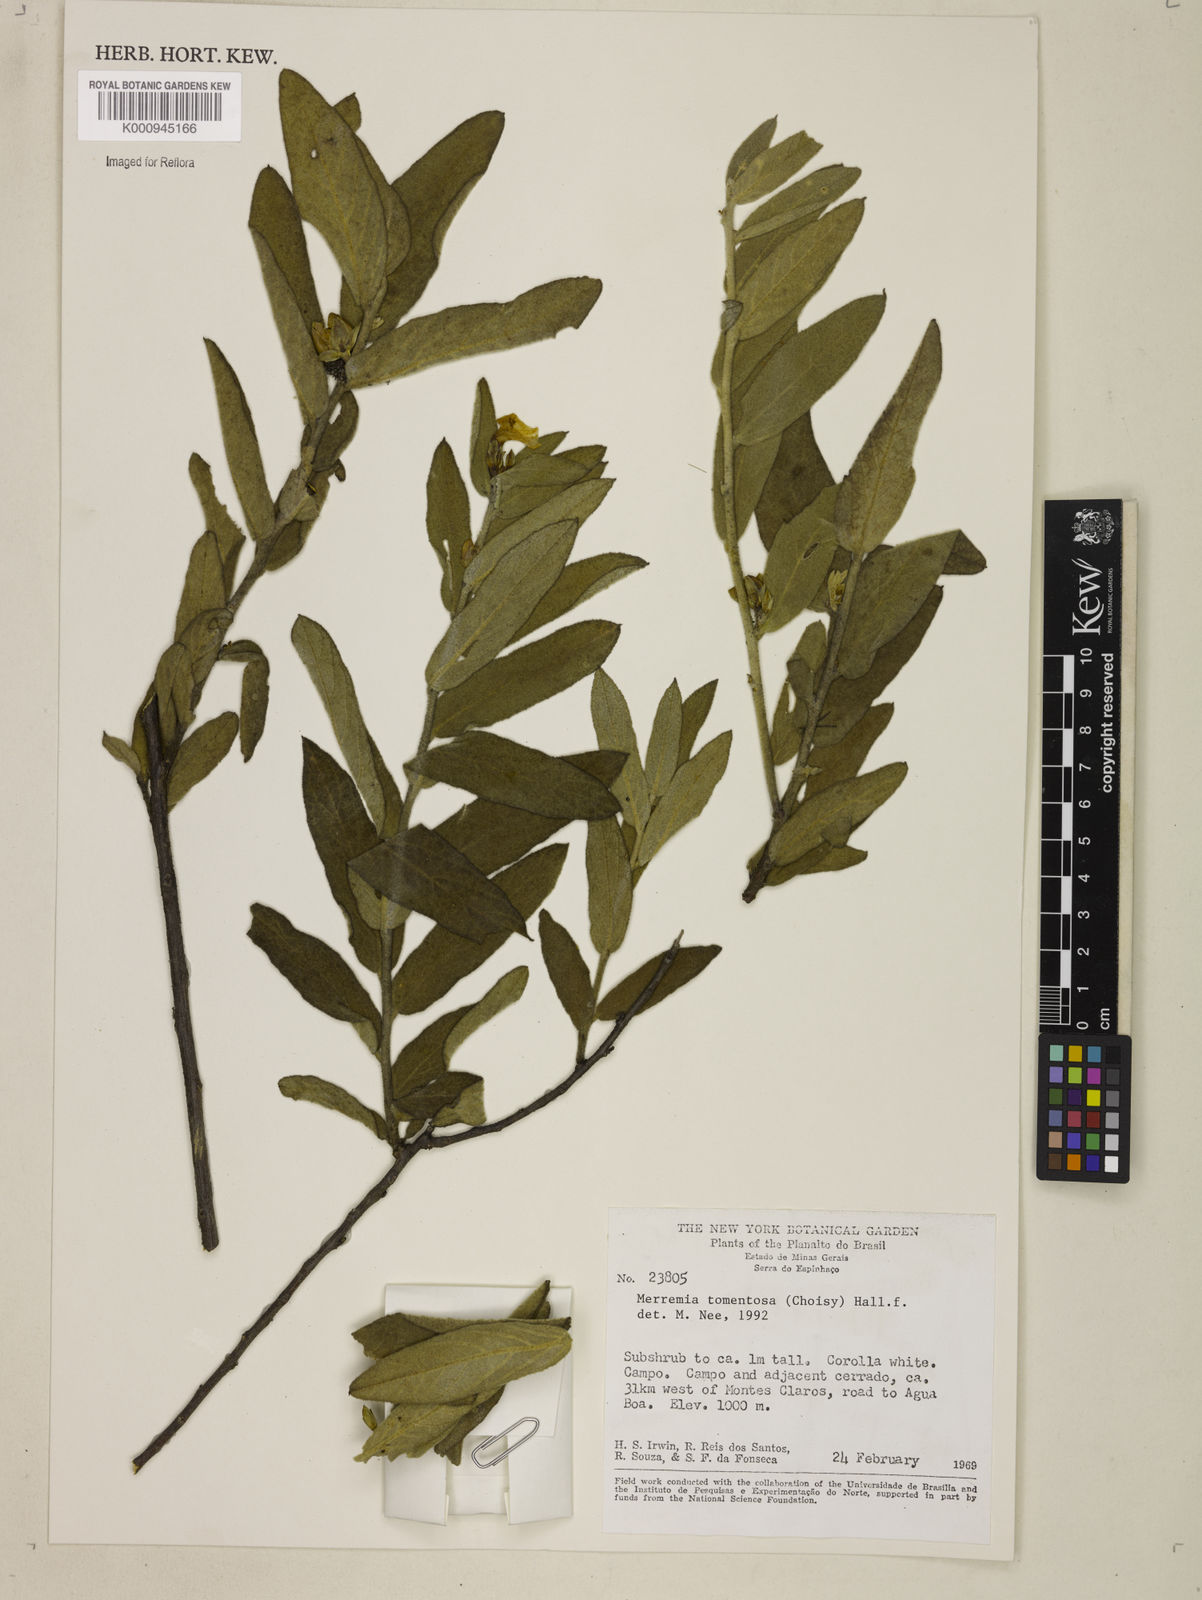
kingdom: Plantae
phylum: Tracheophyta
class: Magnoliopsida
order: Solanales
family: Convolvulaceae
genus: Distimake
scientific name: Distimake tomentosus
